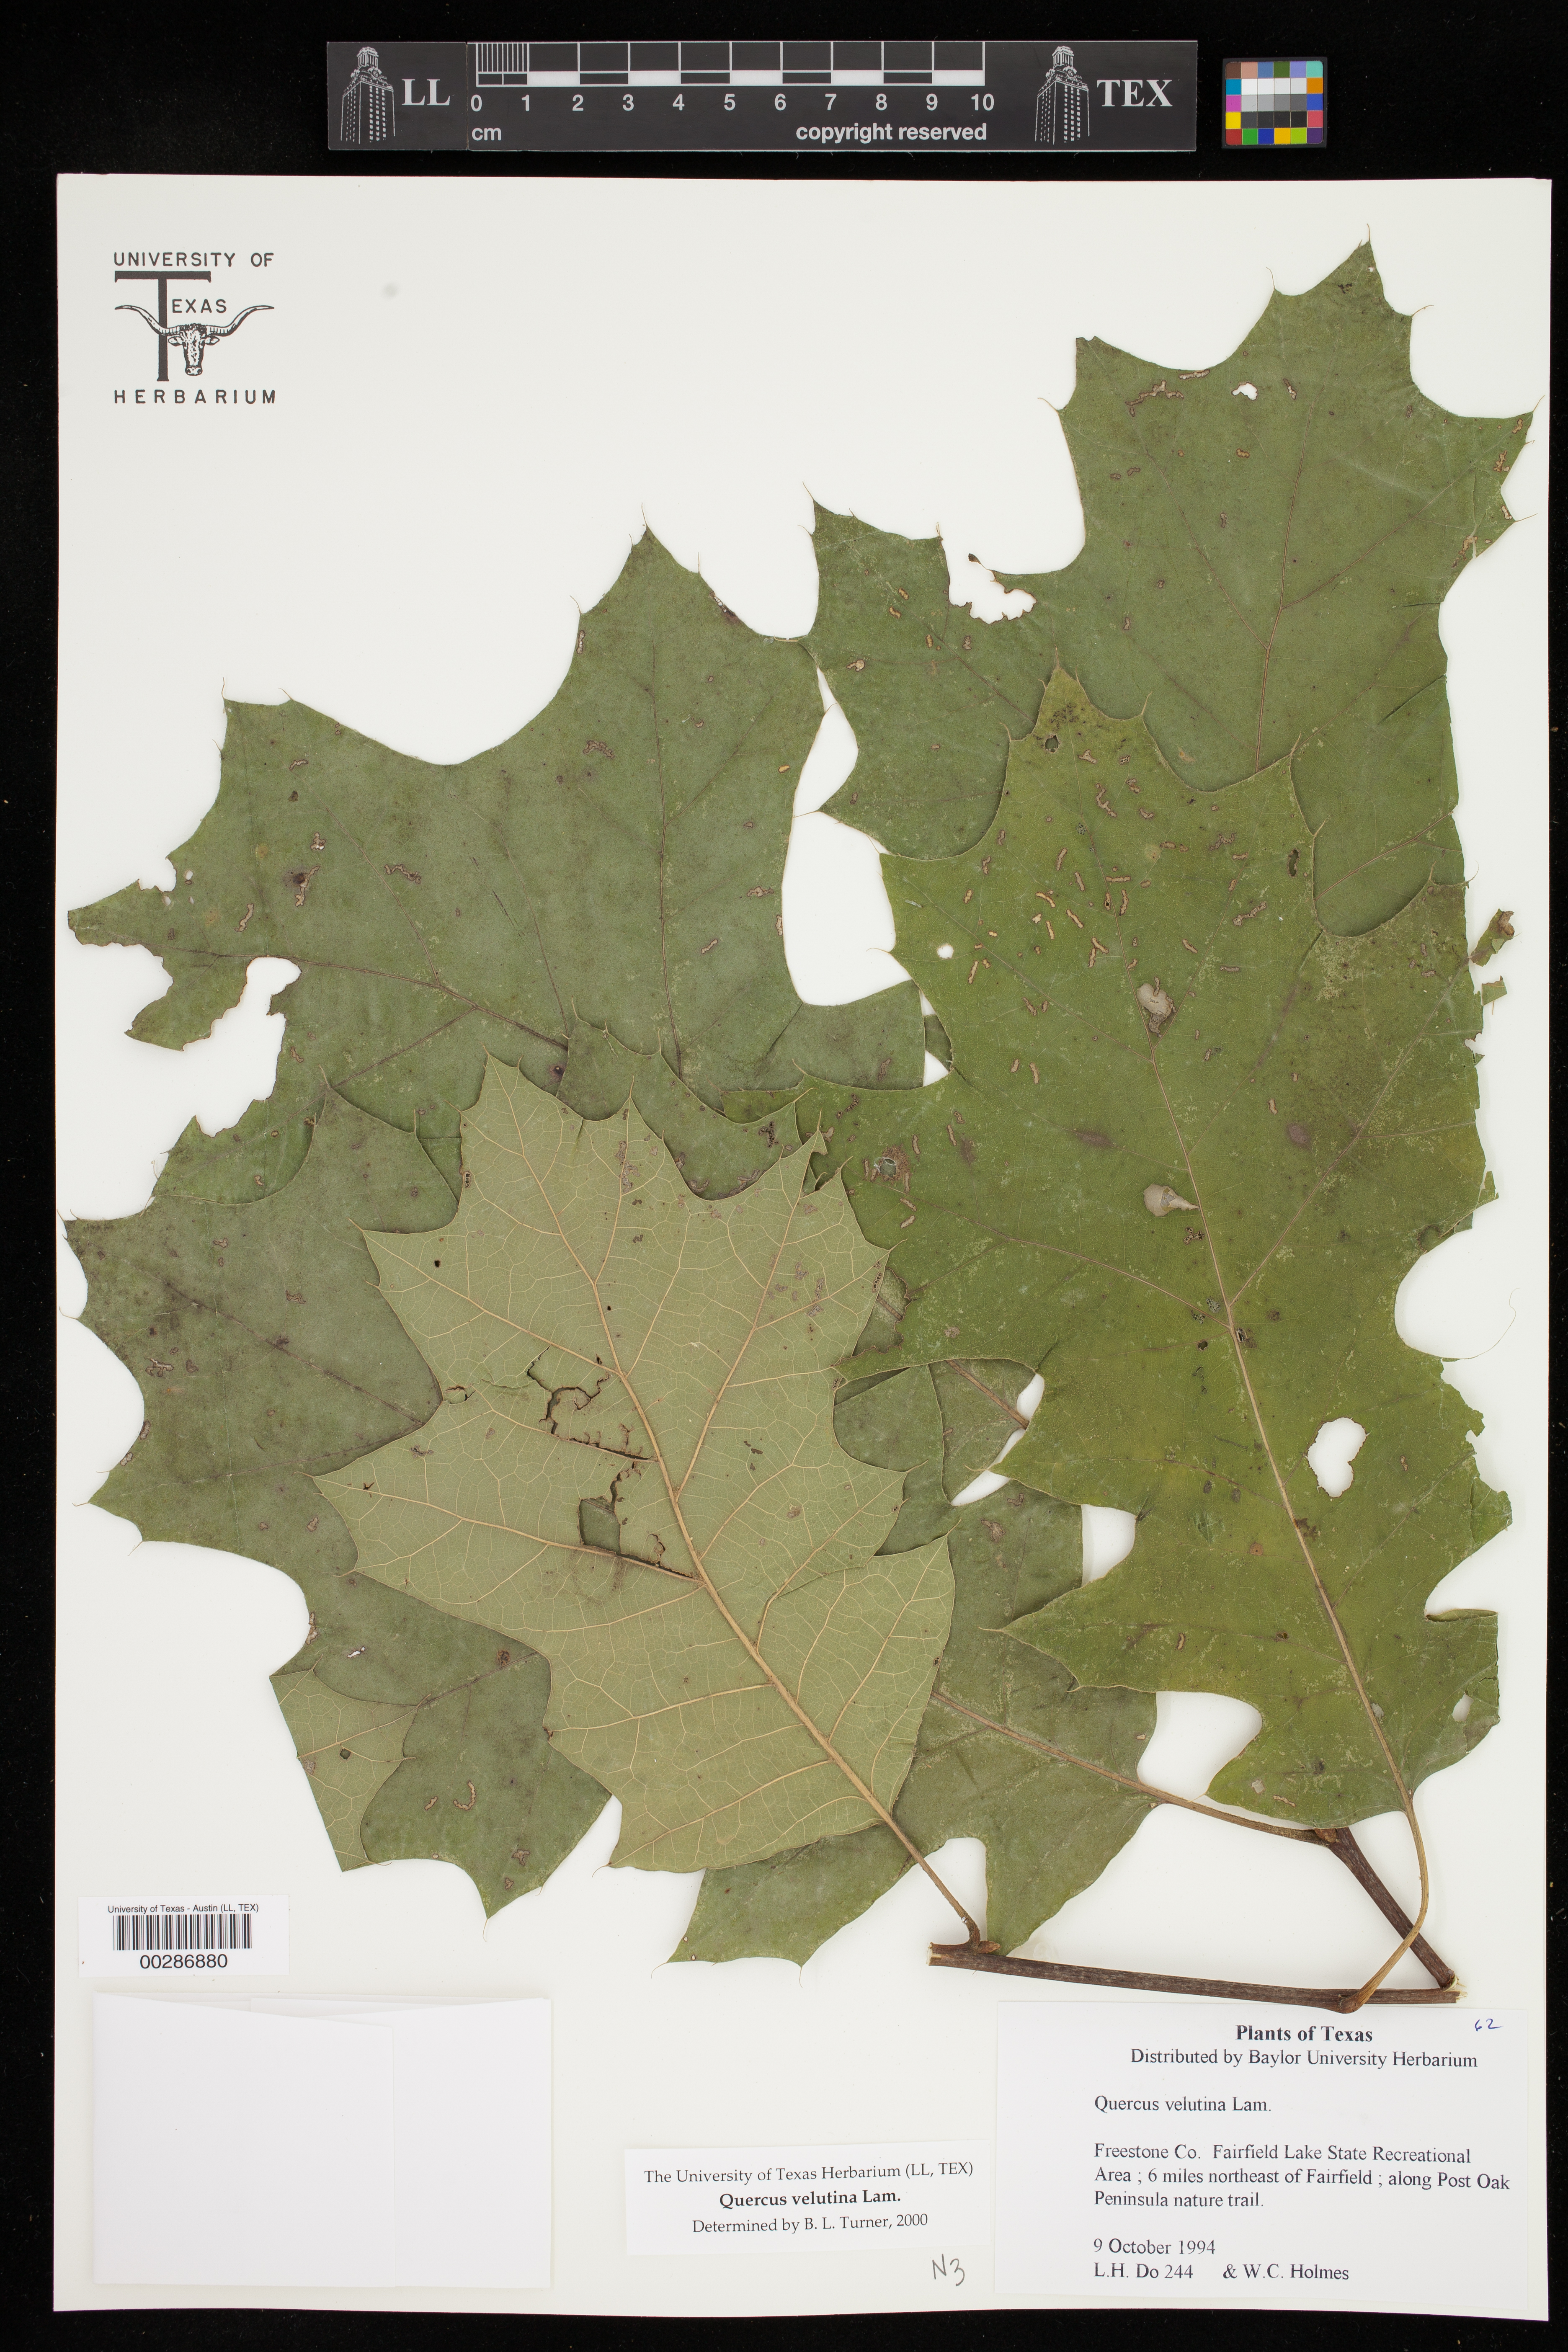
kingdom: Plantae
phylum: Tracheophyta
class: Magnoliopsida
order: Fagales
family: Fagaceae
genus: Quercus
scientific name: Quercus velutina
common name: Black oak
